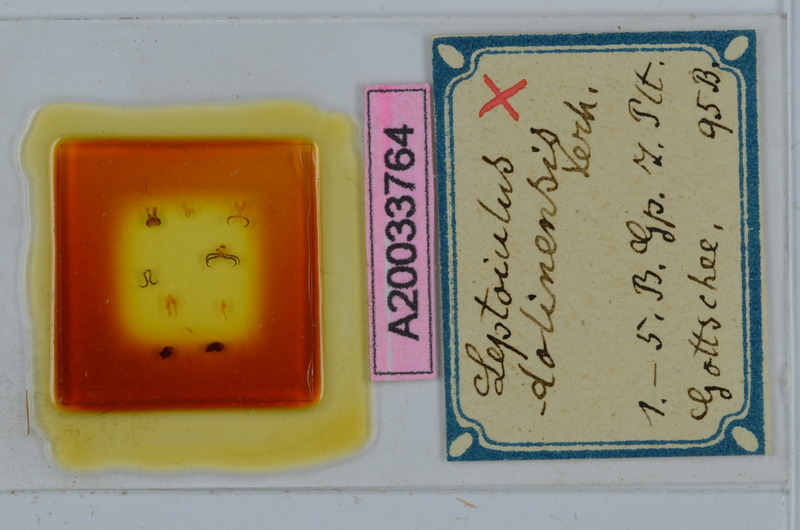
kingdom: Animalia
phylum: Arthropoda
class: Diplopoda
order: Julida
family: Julidae
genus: Leptoiulus
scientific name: Leptoiulus dolinensis
